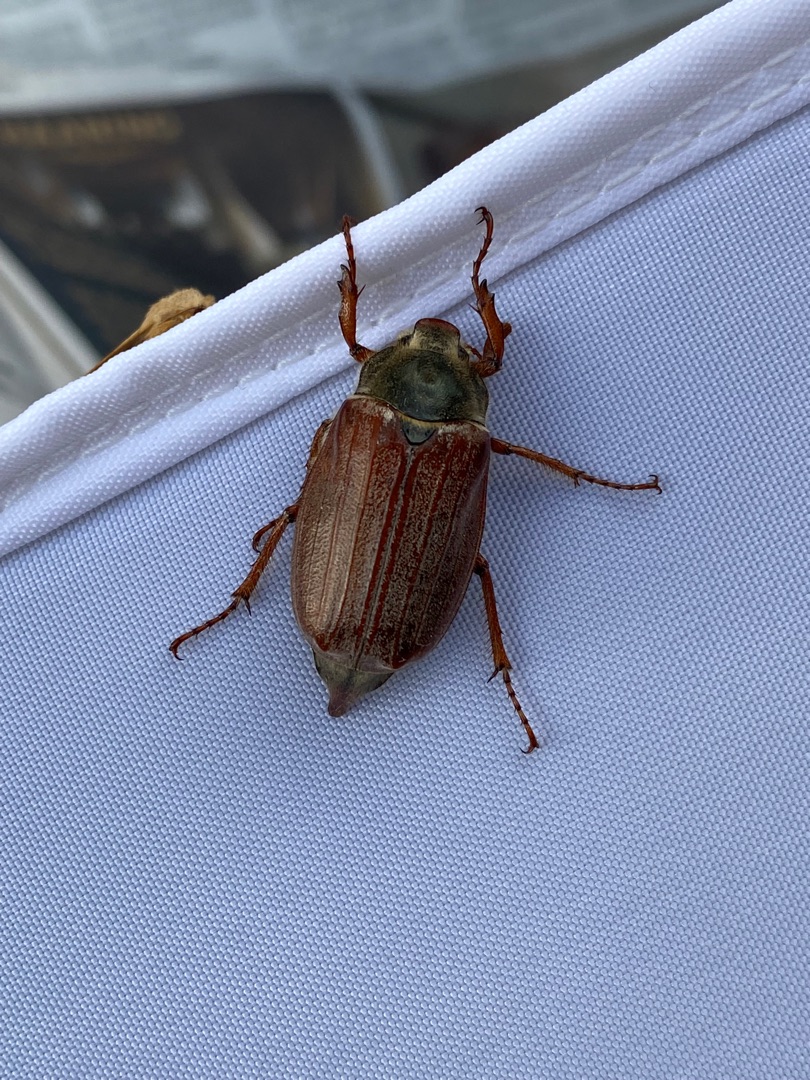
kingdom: Animalia
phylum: Arthropoda
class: Insecta
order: Coleoptera
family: Scarabaeidae
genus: Melolontha
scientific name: Melolontha melolontha
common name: Almindelig oldenborre
